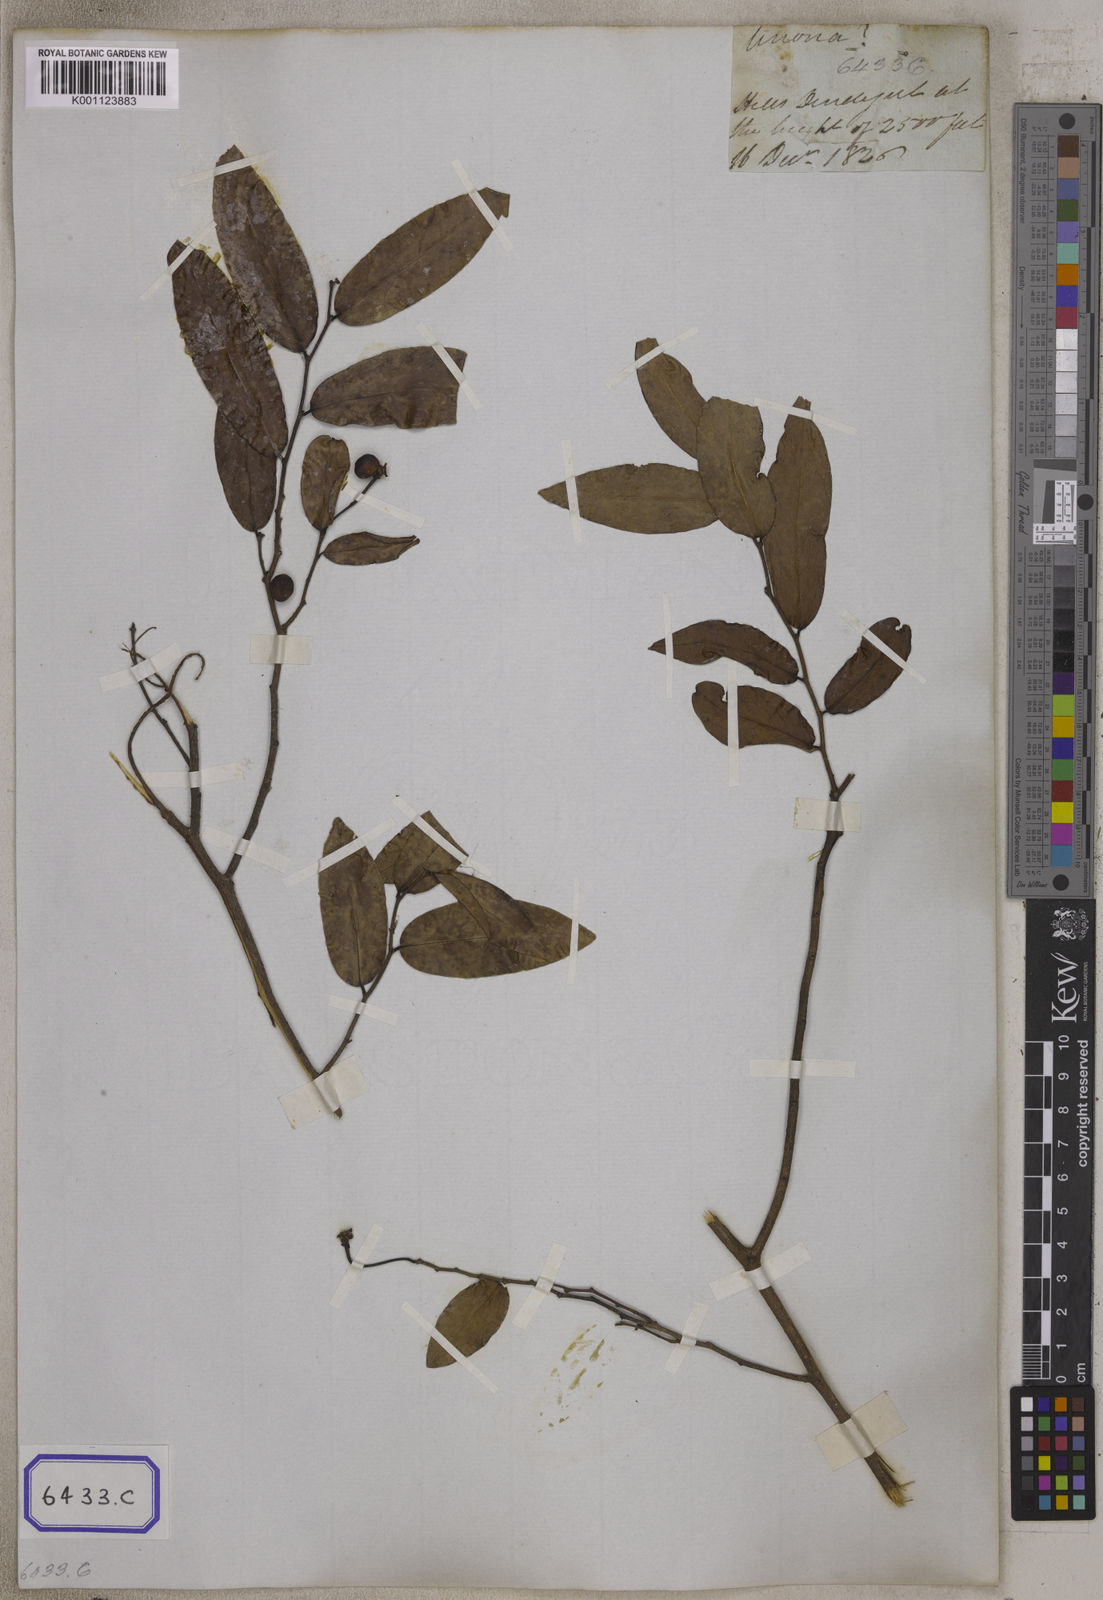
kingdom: Plantae
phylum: Tracheophyta
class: Magnoliopsida
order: Magnoliales
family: Annonaceae
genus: Miliusa
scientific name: Miliusa indica
